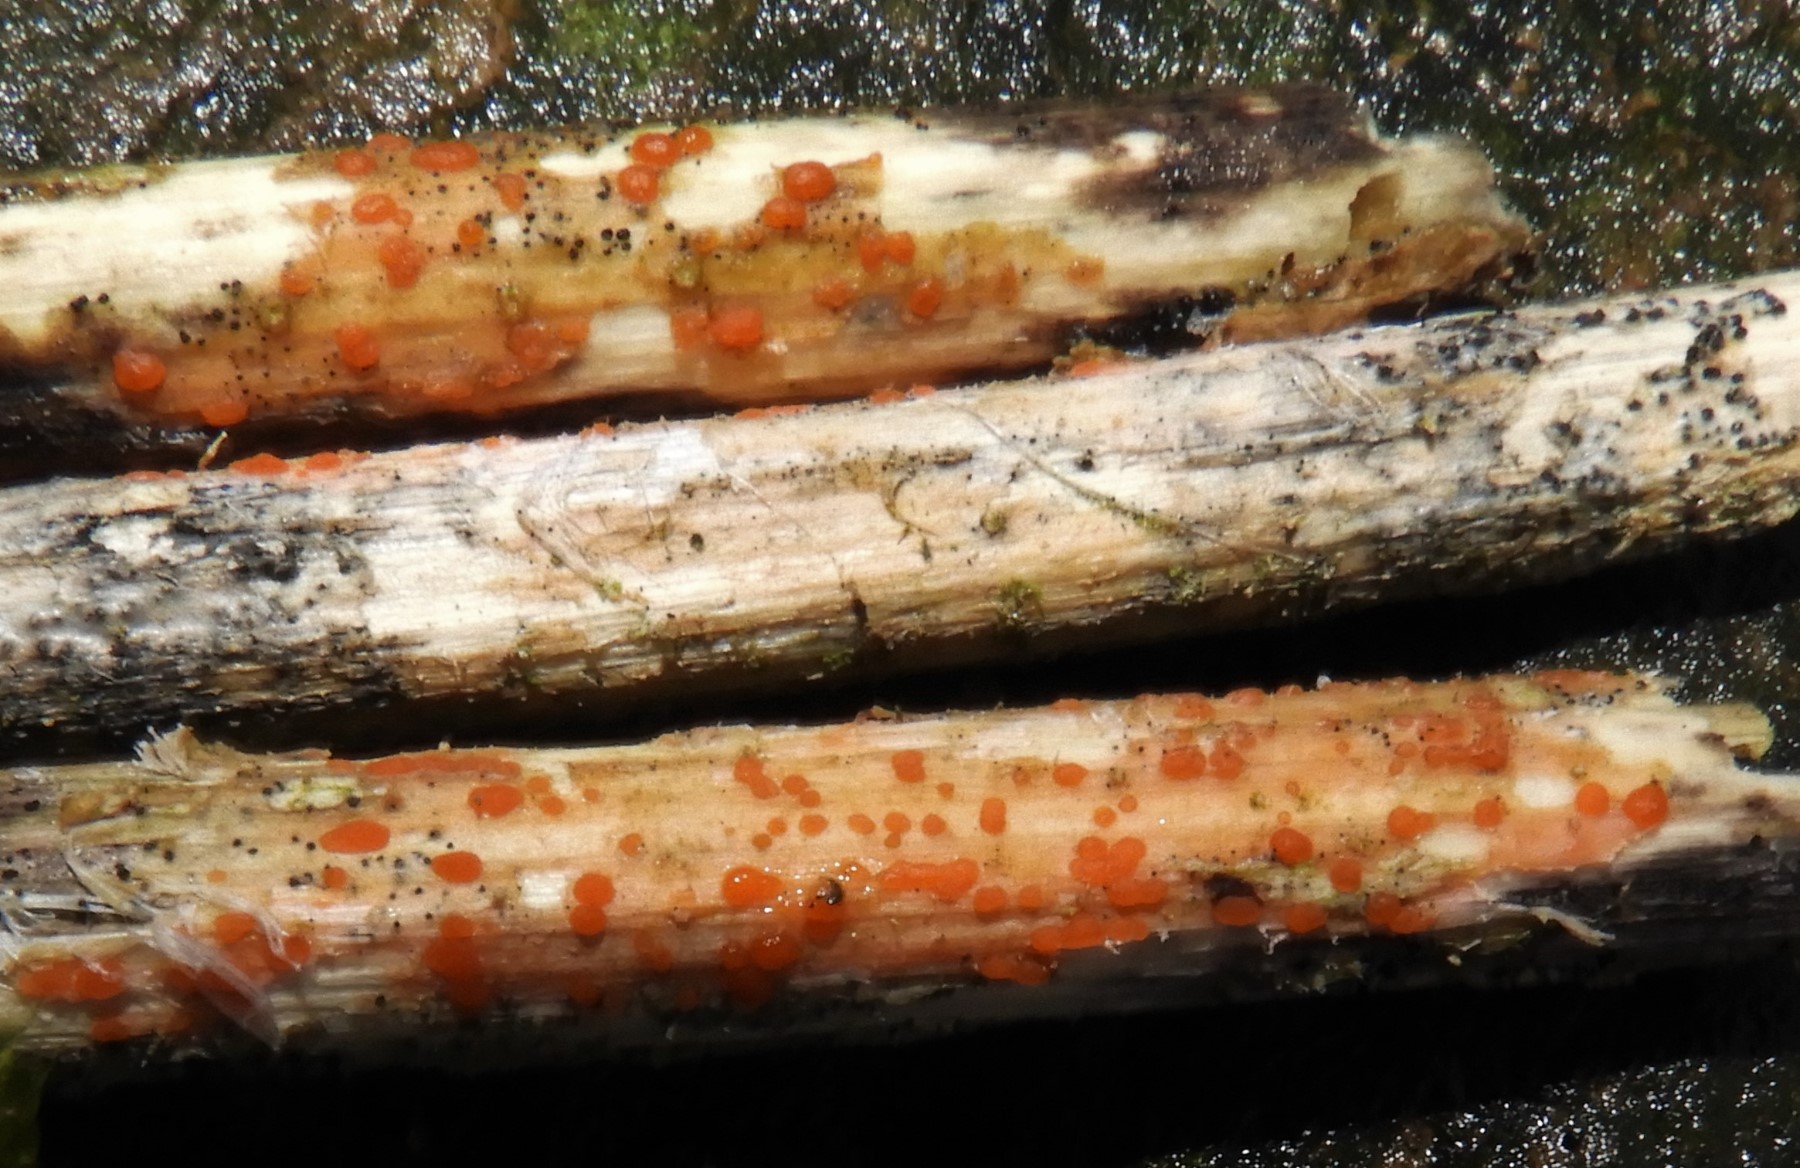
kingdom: Fungi
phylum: Ascomycota
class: Leotiomycetes
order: Helotiales
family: Calloriaceae
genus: Calloria
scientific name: Calloria urticae
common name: nælde-orangeskive
